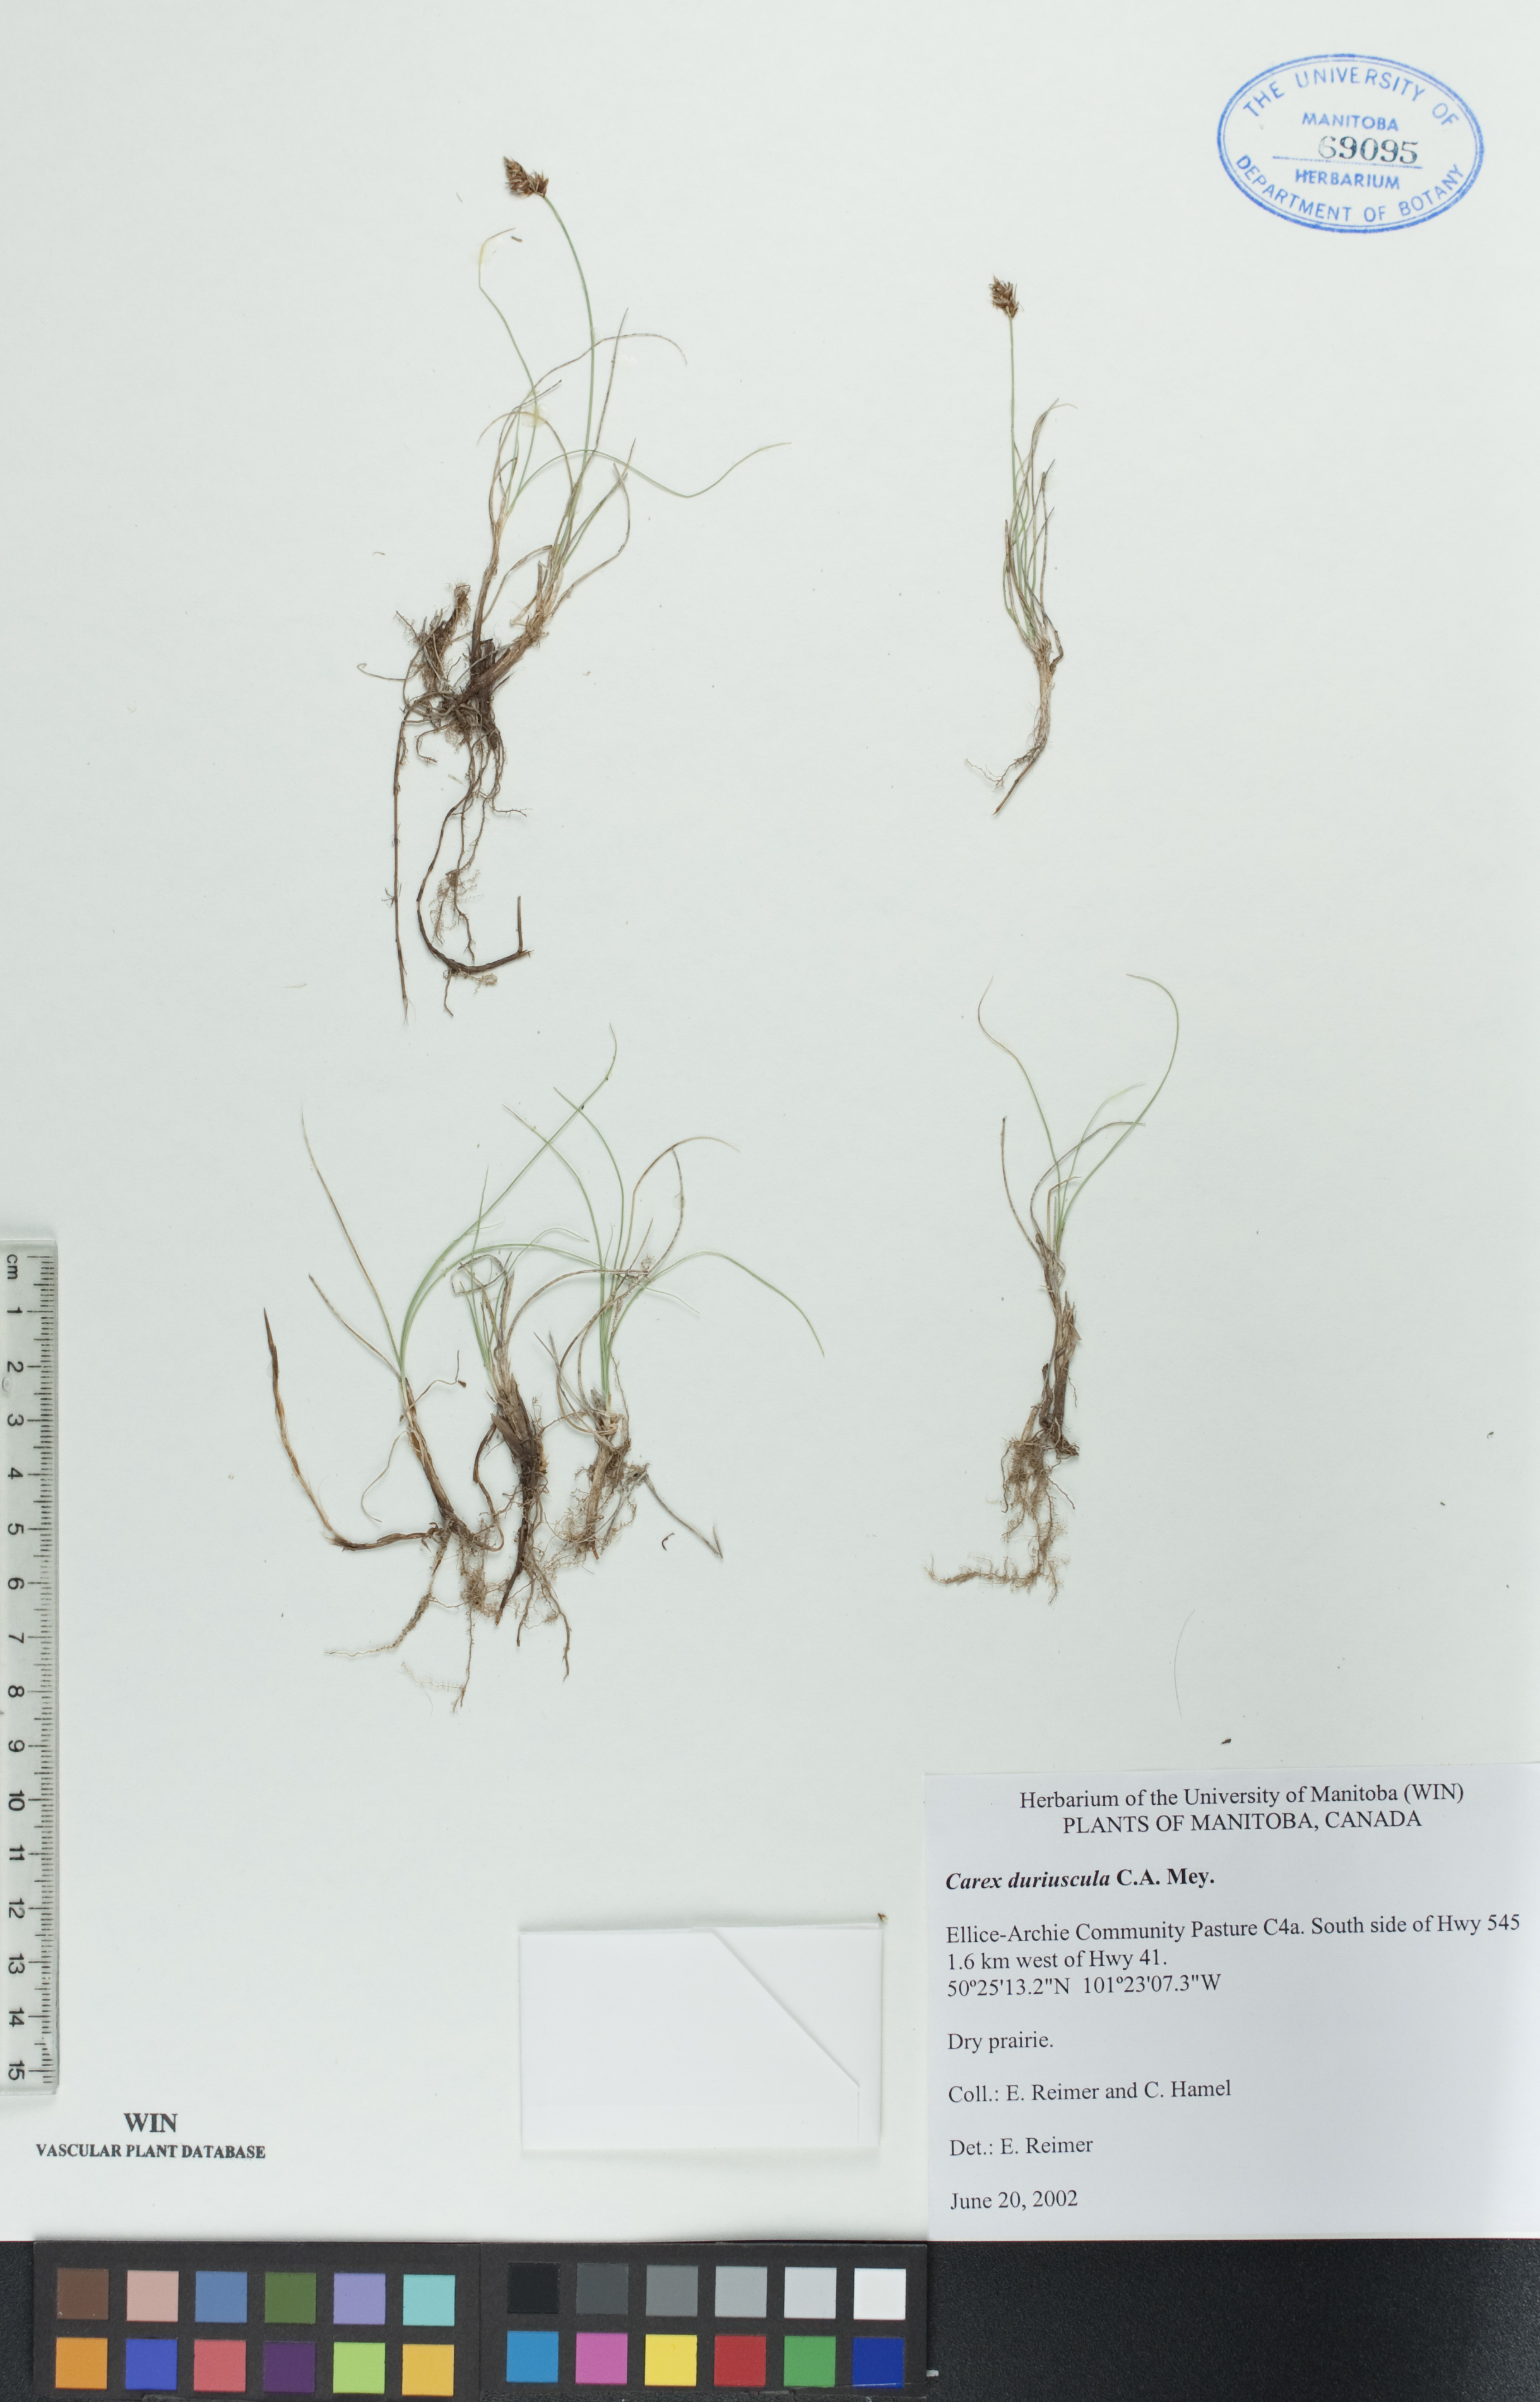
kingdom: Plantae
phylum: Tracheophyta
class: Liliopsida
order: Poales
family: Cyperaceae
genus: Carex
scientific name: Carex duriuscula
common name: Involute-leaved sedge
